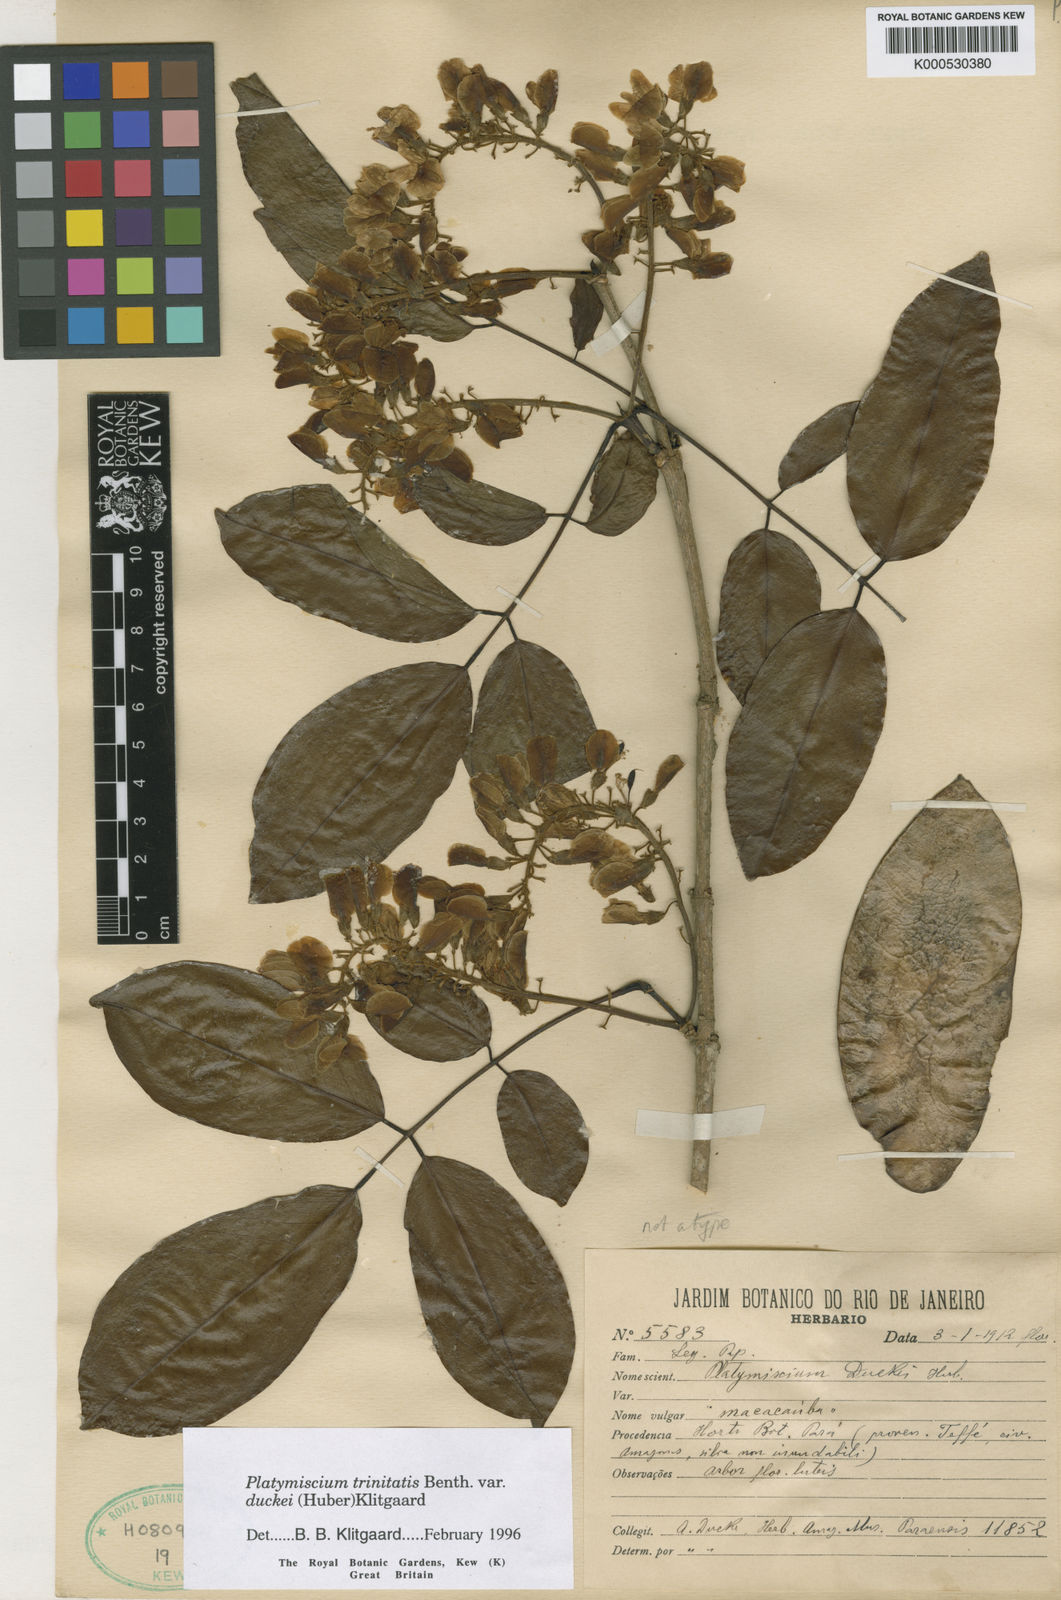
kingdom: Plantae
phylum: Tracheophyta
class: Magnoliopsida
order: Fabales
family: Fabaceae
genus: Platymiscium
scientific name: Platymiscium trinitatis
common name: Trinidad macawood
